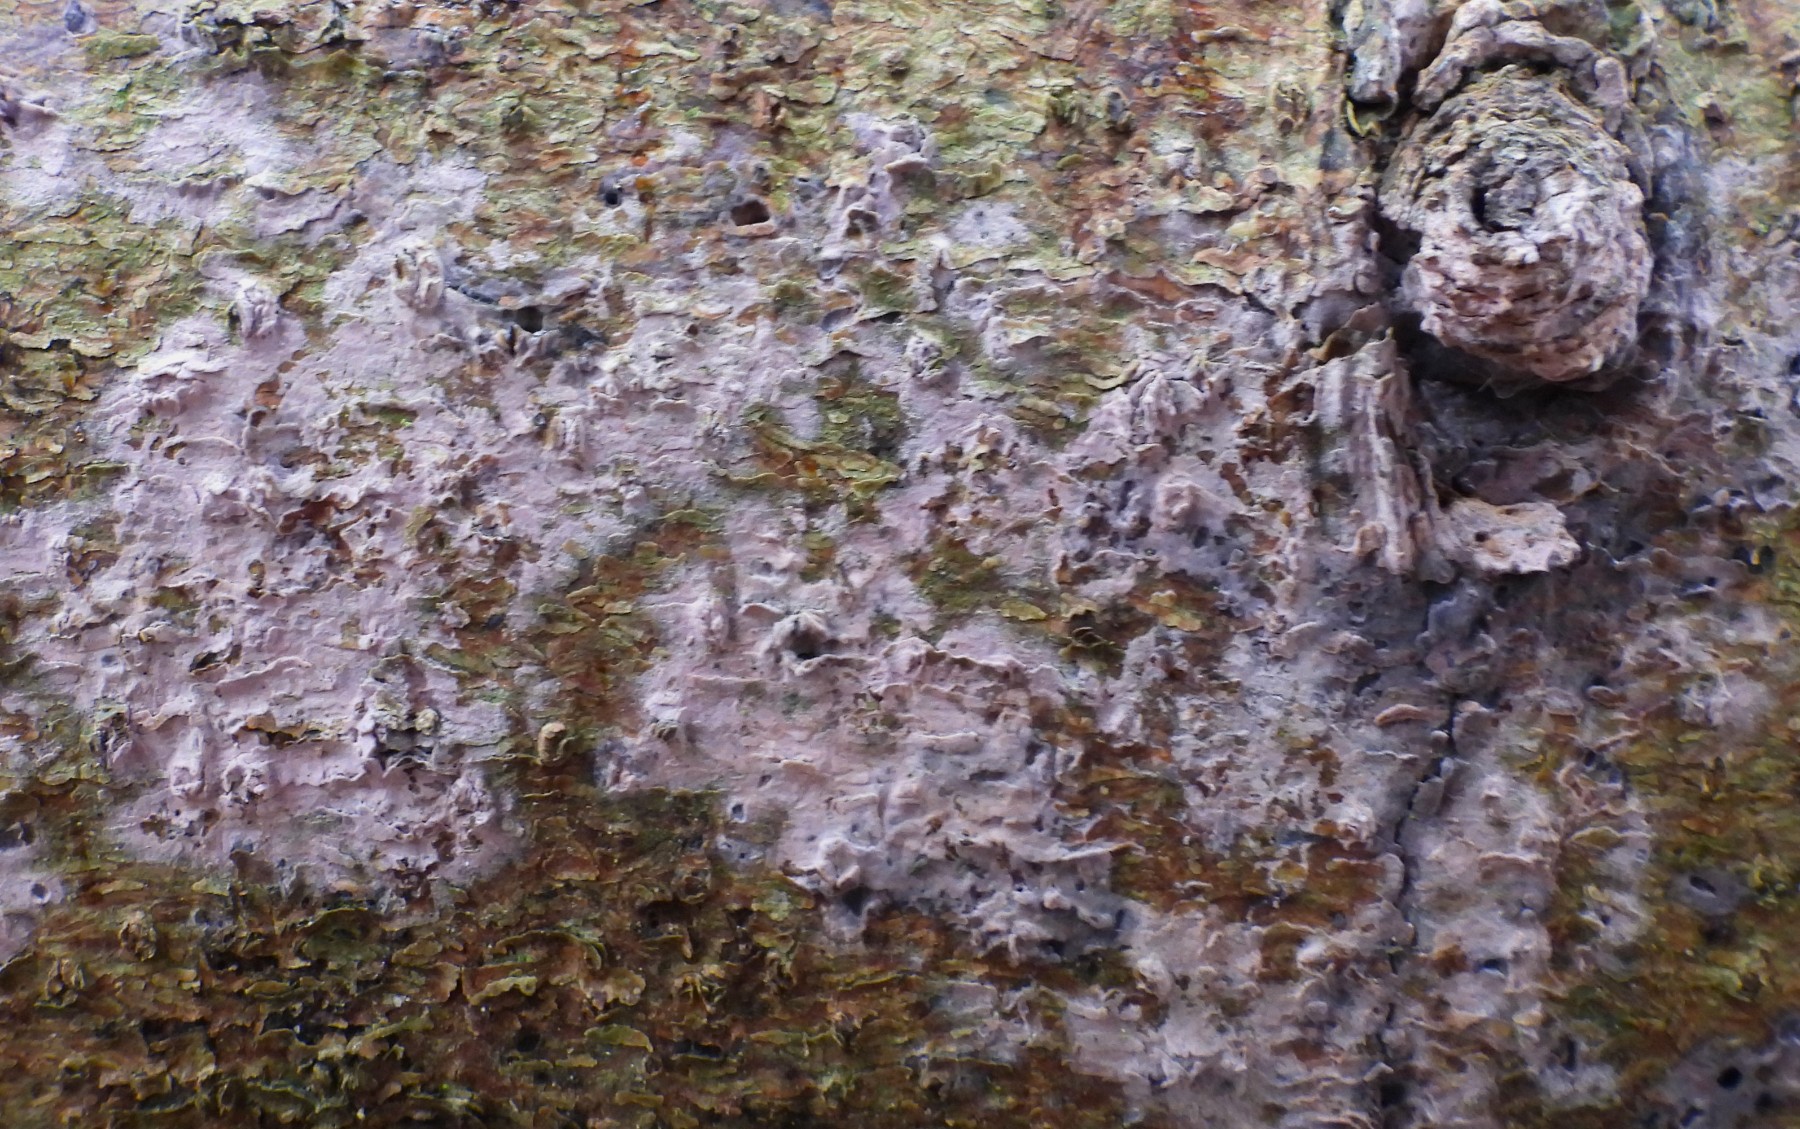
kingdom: Fungi
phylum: Basidiomycota
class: Agaricomycetes
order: Cantharellales
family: Tulasnellaceae
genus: Tulasnella
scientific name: Tulasnella violea
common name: violet ballonhinde
